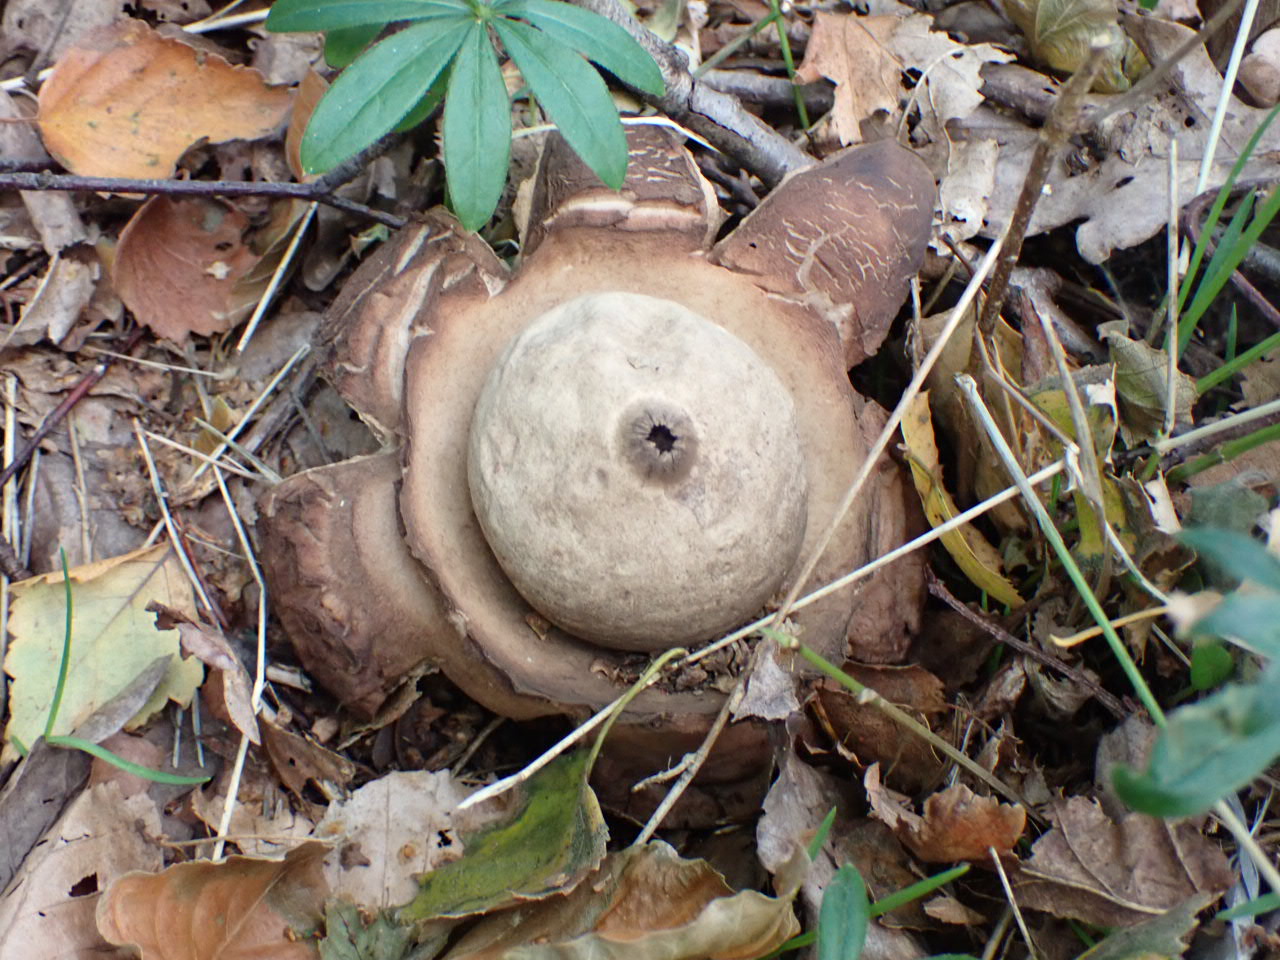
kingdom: Fungi
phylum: Basidiomycota
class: Agaricomycetes
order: Geastrales
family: Geastraceae
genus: Geastrum
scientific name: Geastrum michelianum
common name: kødet stjernebold
